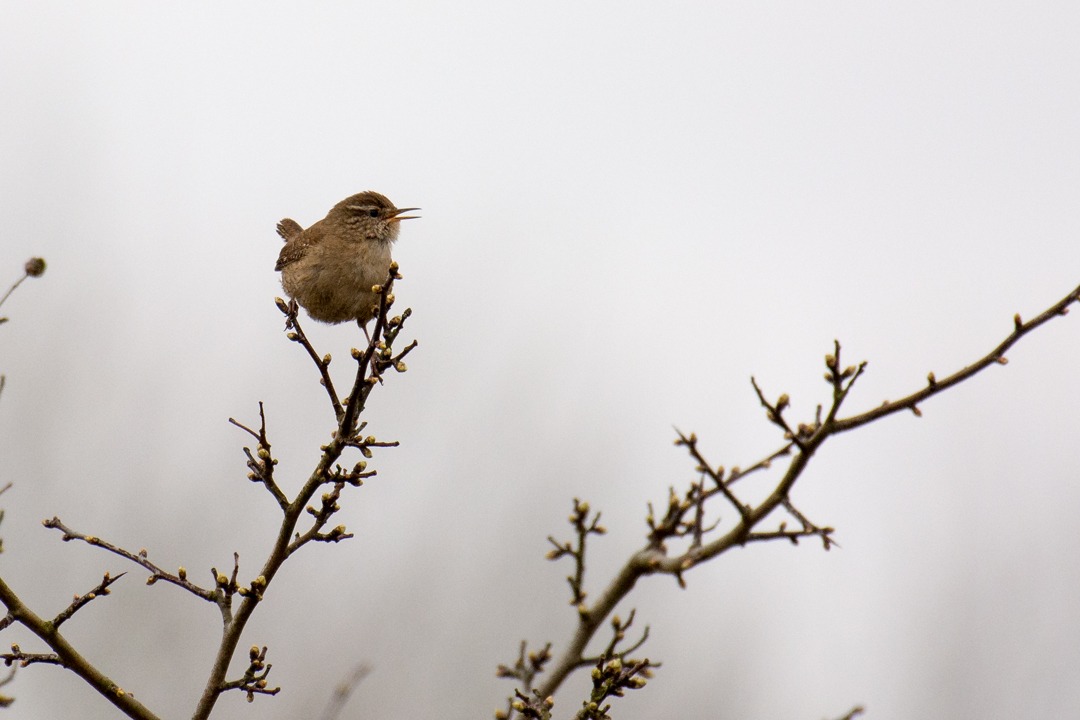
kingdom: Animalia
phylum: Chordata
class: Aves
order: Passeriformes
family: Troglodytidae
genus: Troglodytes
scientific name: Troglodytes troglodytes
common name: Gærdesmutte
